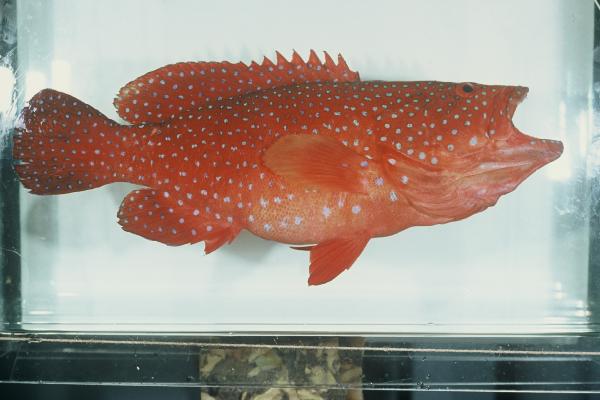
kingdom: Animalia
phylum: Chordata
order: Perciformes
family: Serranidae
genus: Cephalopholis
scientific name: Cephalopholis miniata
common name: Coral hind
